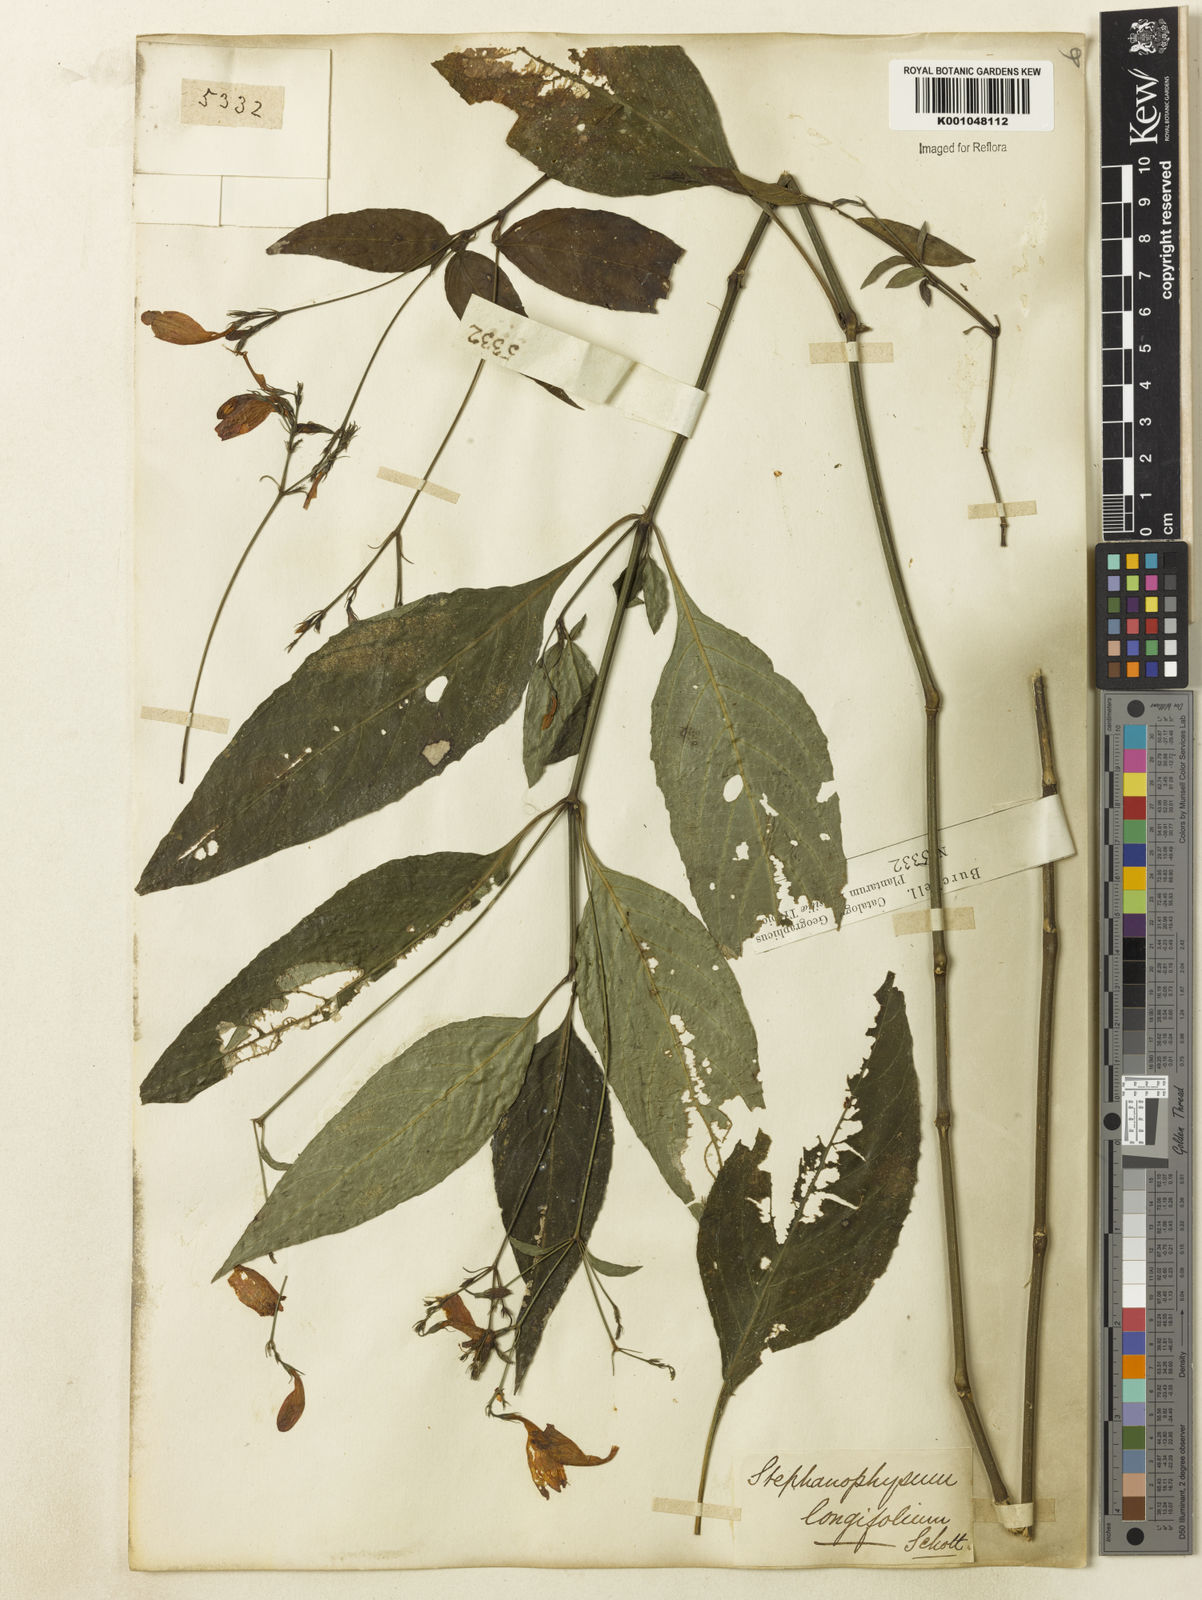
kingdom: Plantae
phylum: Tracheophyta
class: Magnoliopsida
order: Lamiales
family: Acanthaceae
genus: Ruellia
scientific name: Ruellia brevifolia
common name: Tropical wild petunia
